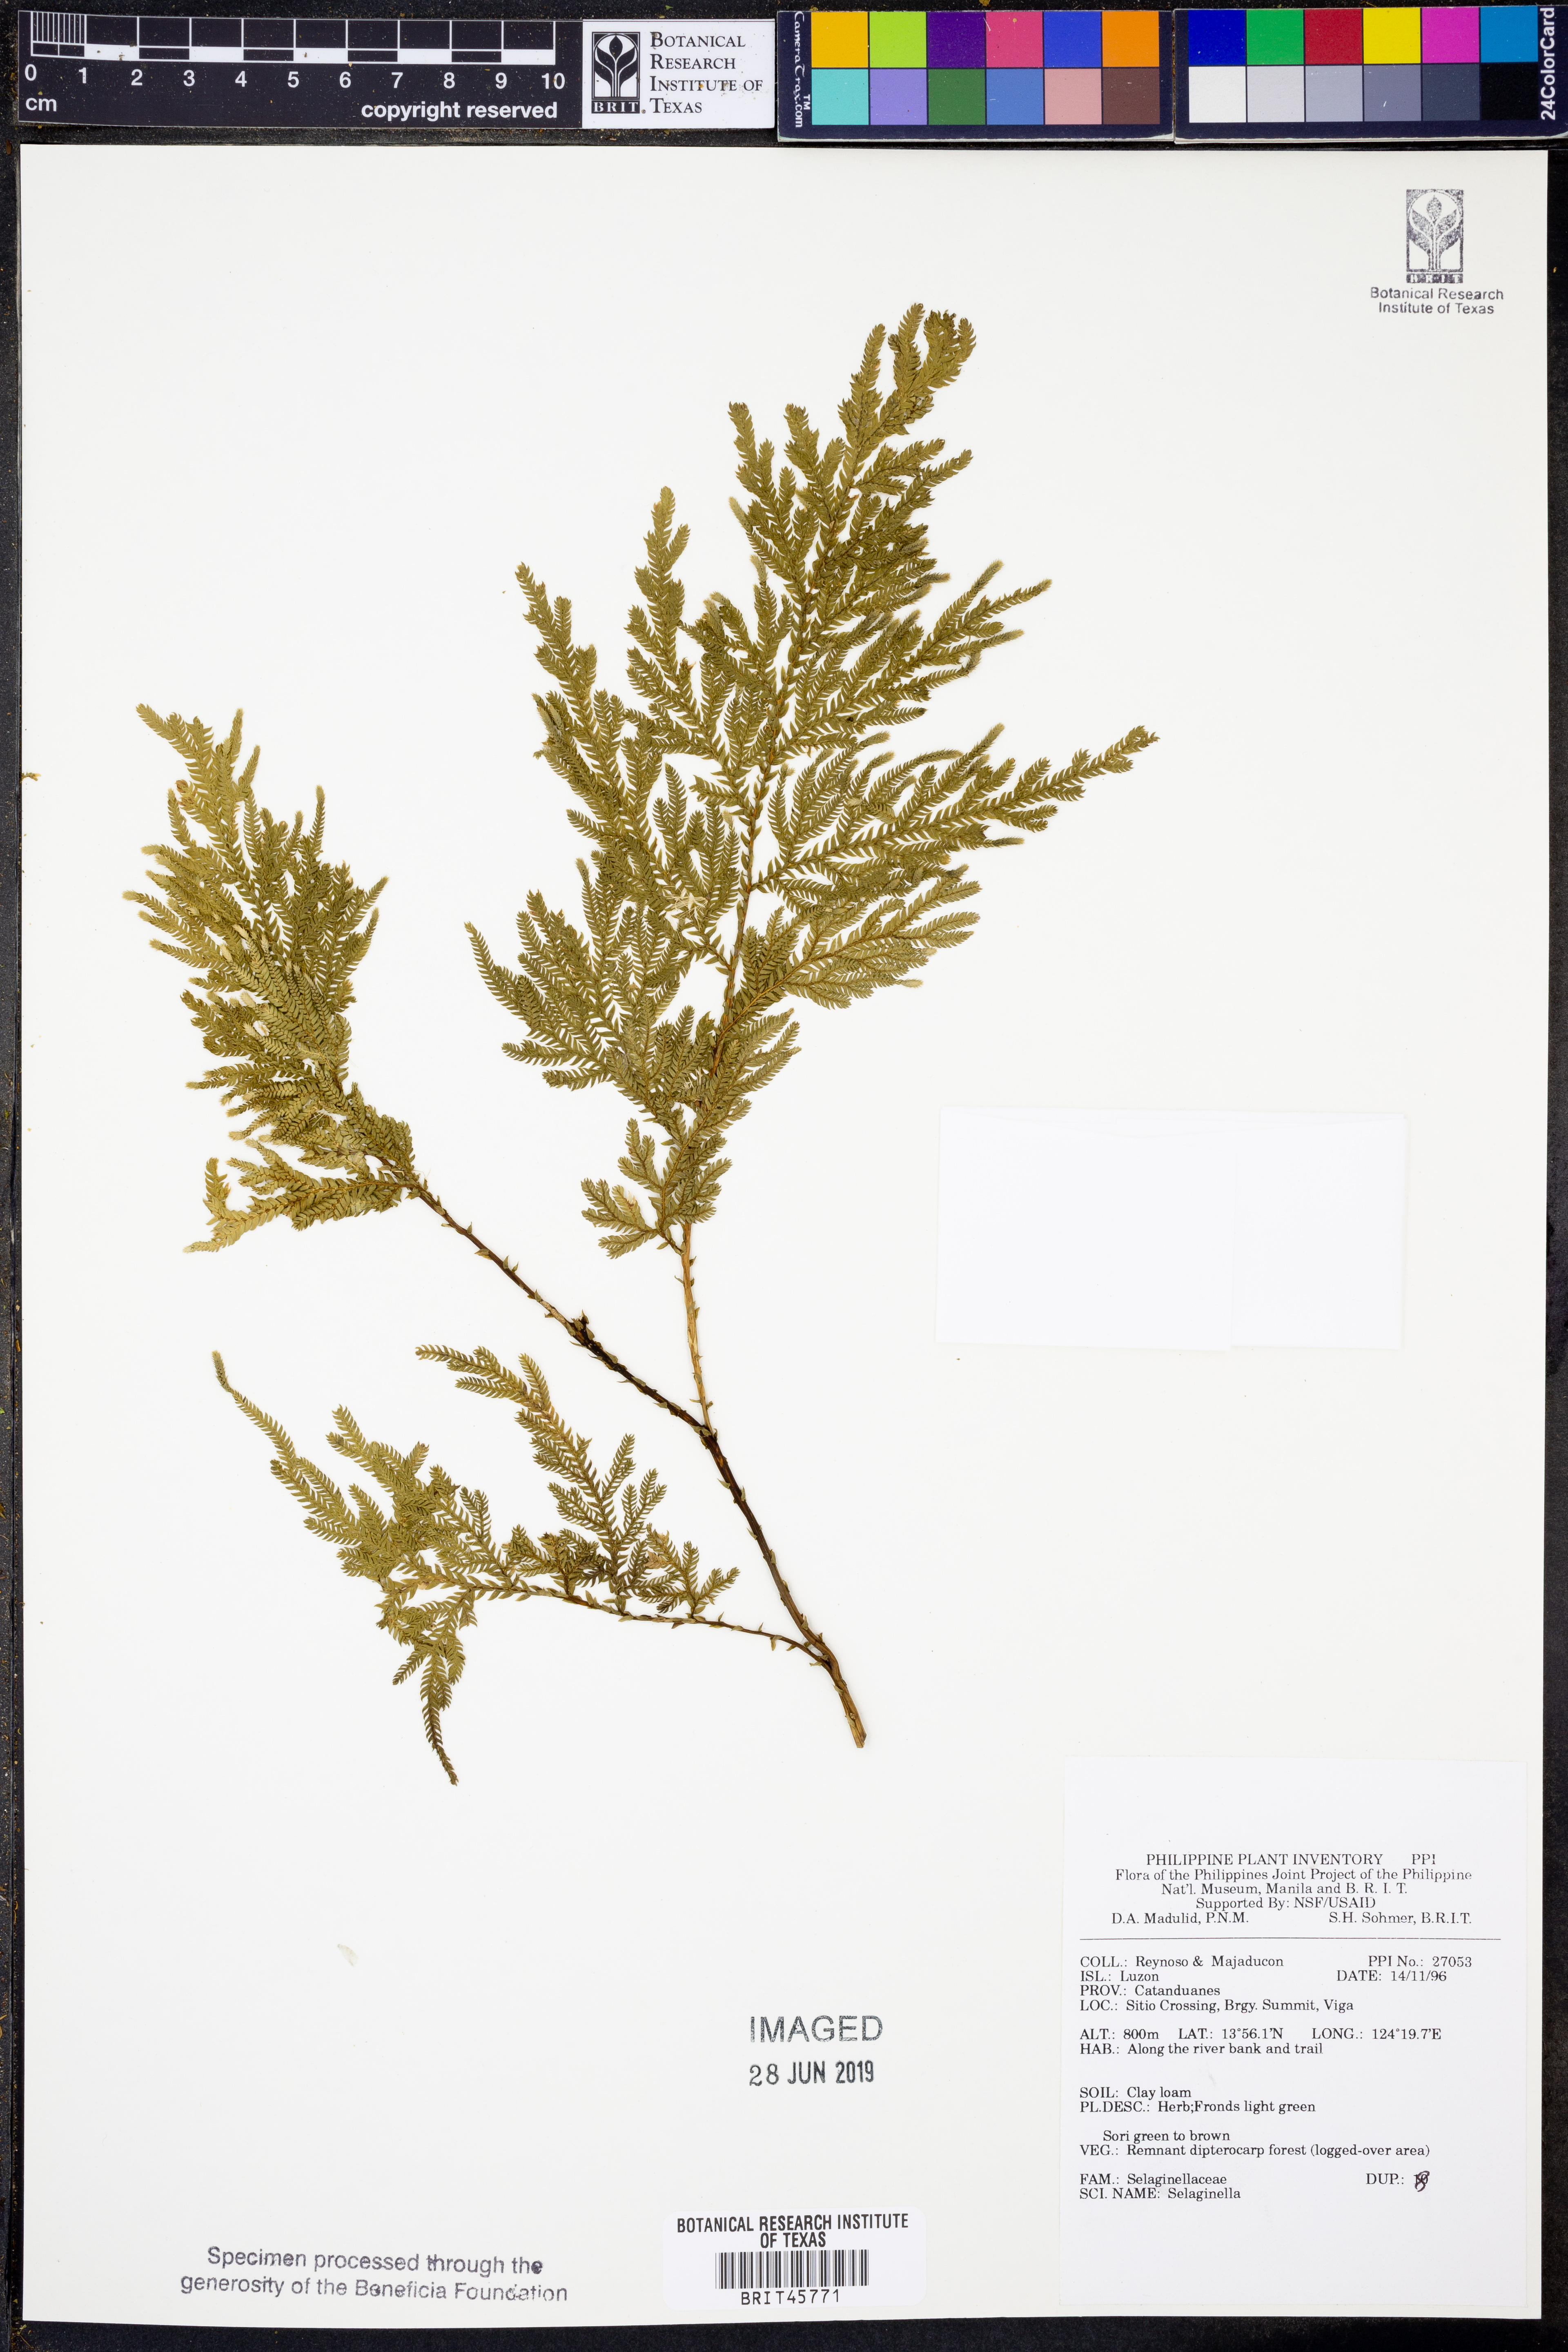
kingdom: Plantae
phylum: Tracheophyta
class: Lycopodiopsida
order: Selaginellales
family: Selaginellaceae
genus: Selaginella
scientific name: Selaginella
